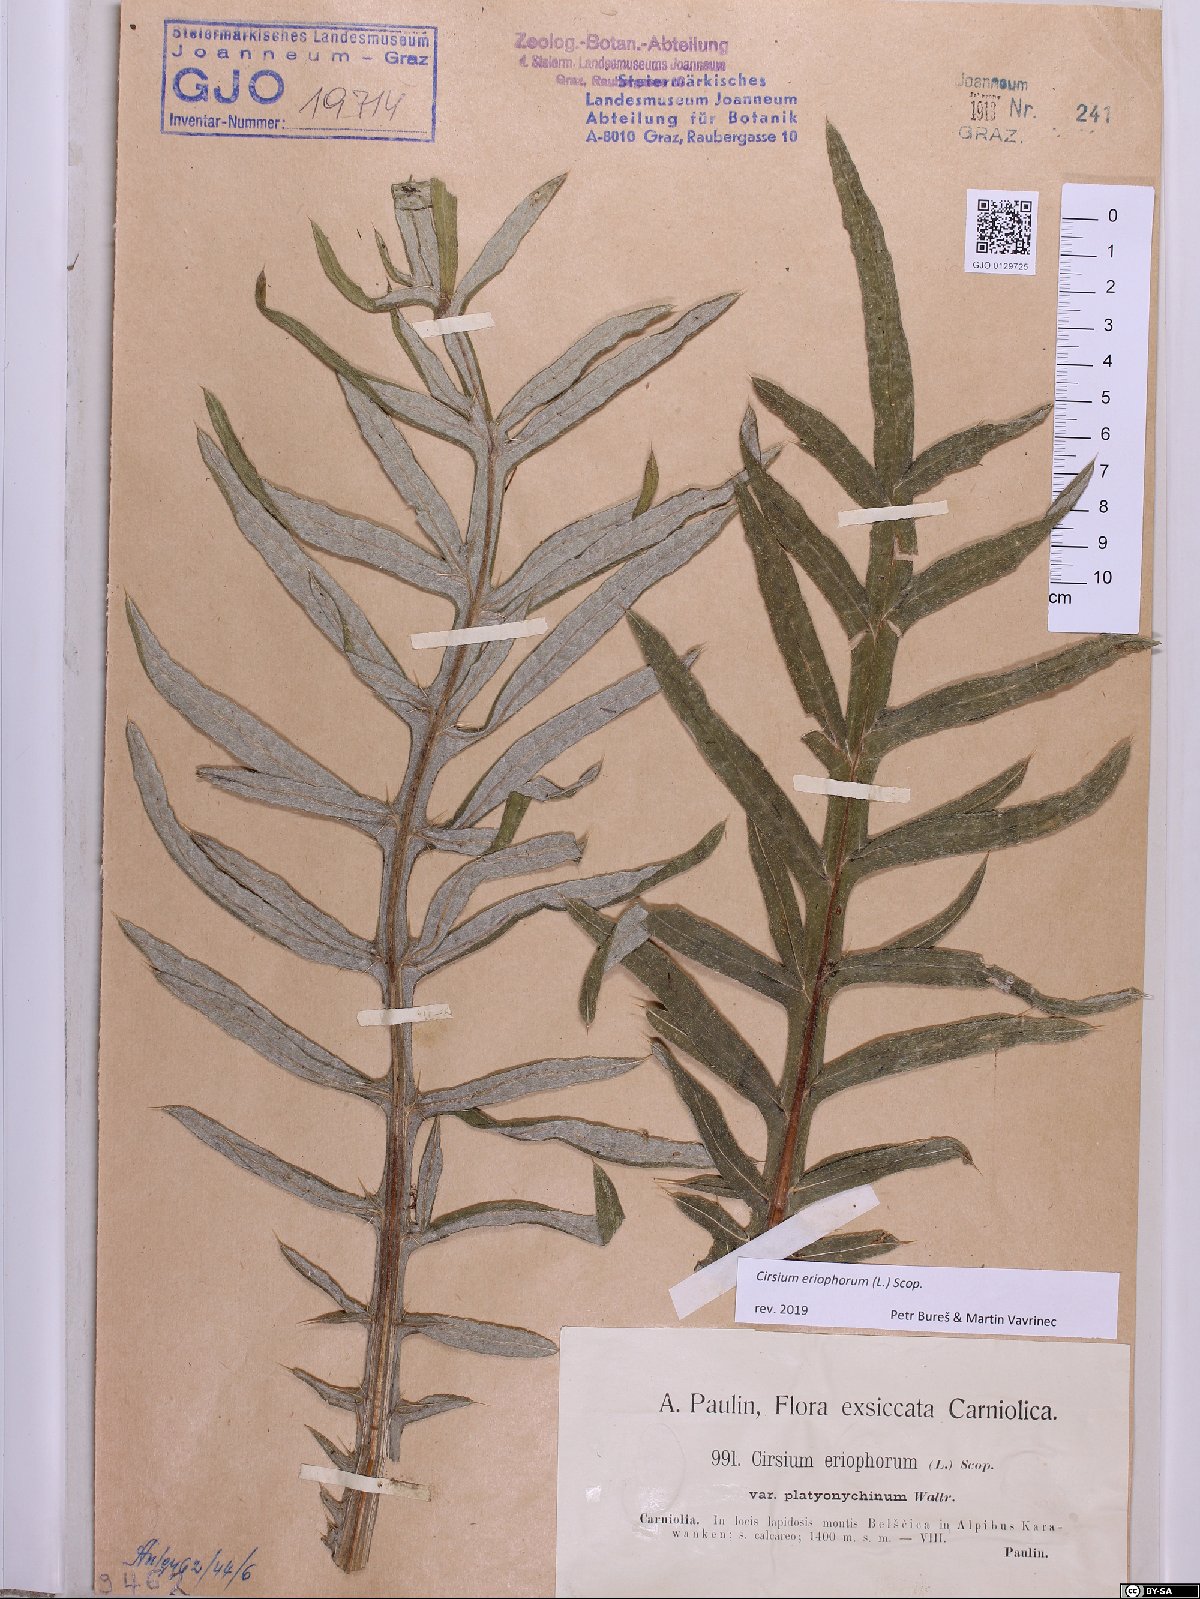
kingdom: Plantae
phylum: Tracheophyta
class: Magnoliopsida
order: Asterales
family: Asteraceae
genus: Lophiolepis
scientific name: Lophiolepis eriophora
